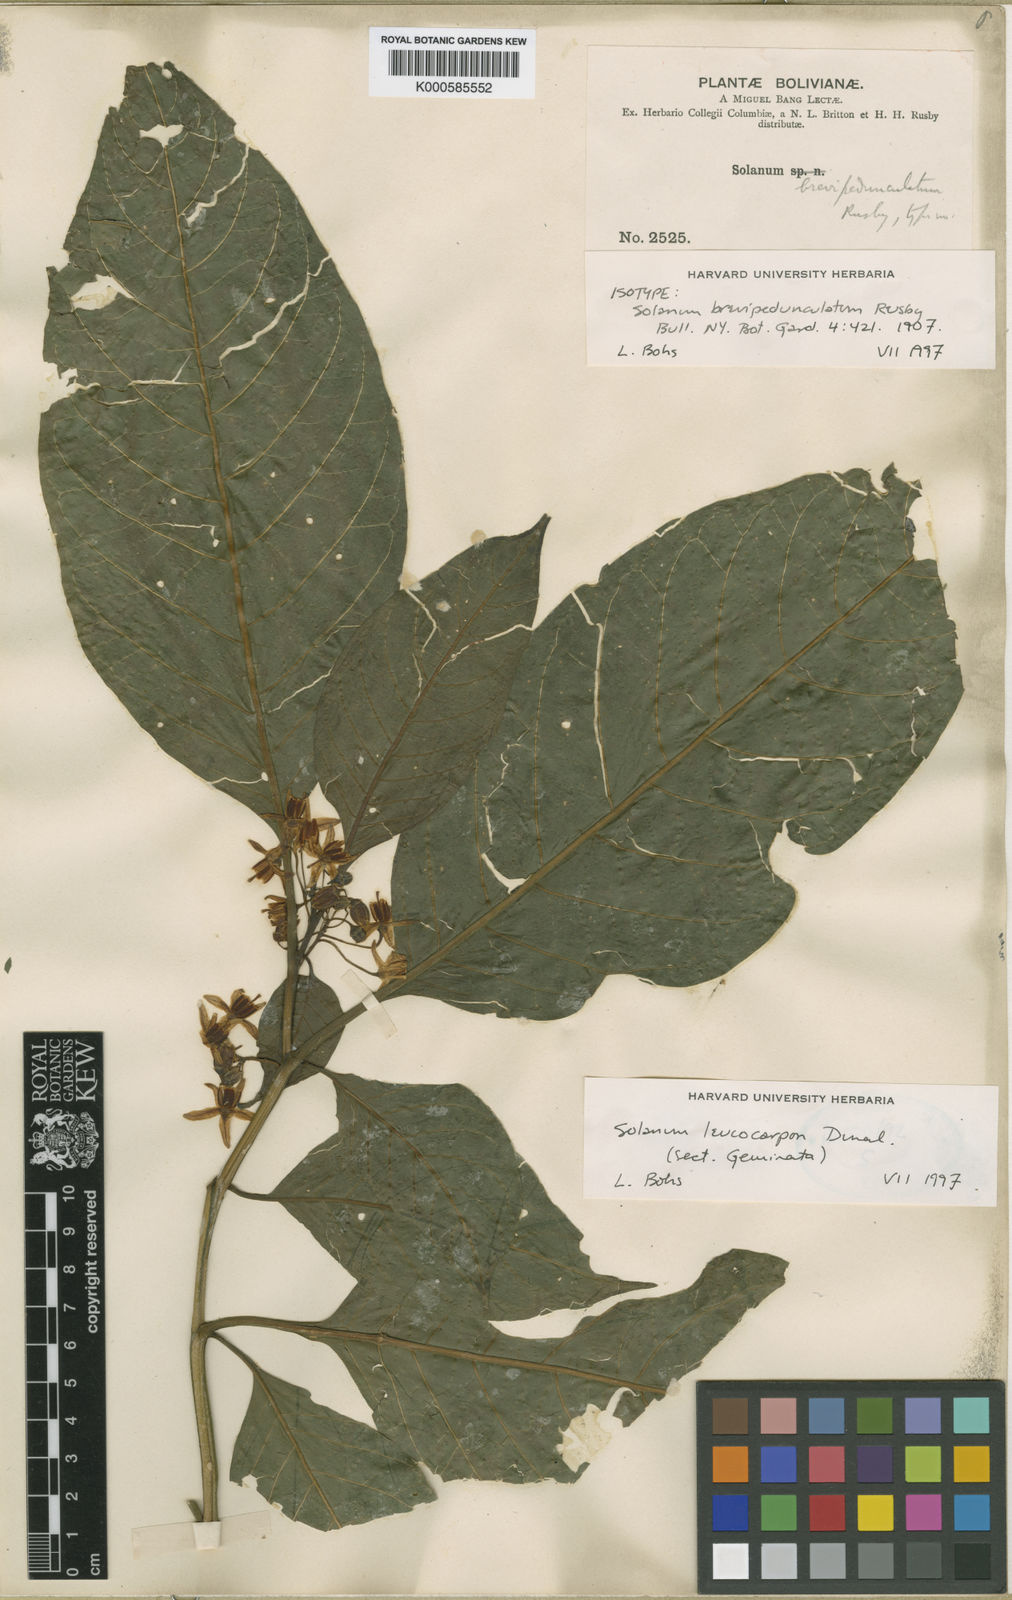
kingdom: Plantae
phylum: Tracheophyta
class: Magnoliopsida
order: Solanales
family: Solanaceae
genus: Solanum
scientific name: Solanum leucocarpon
